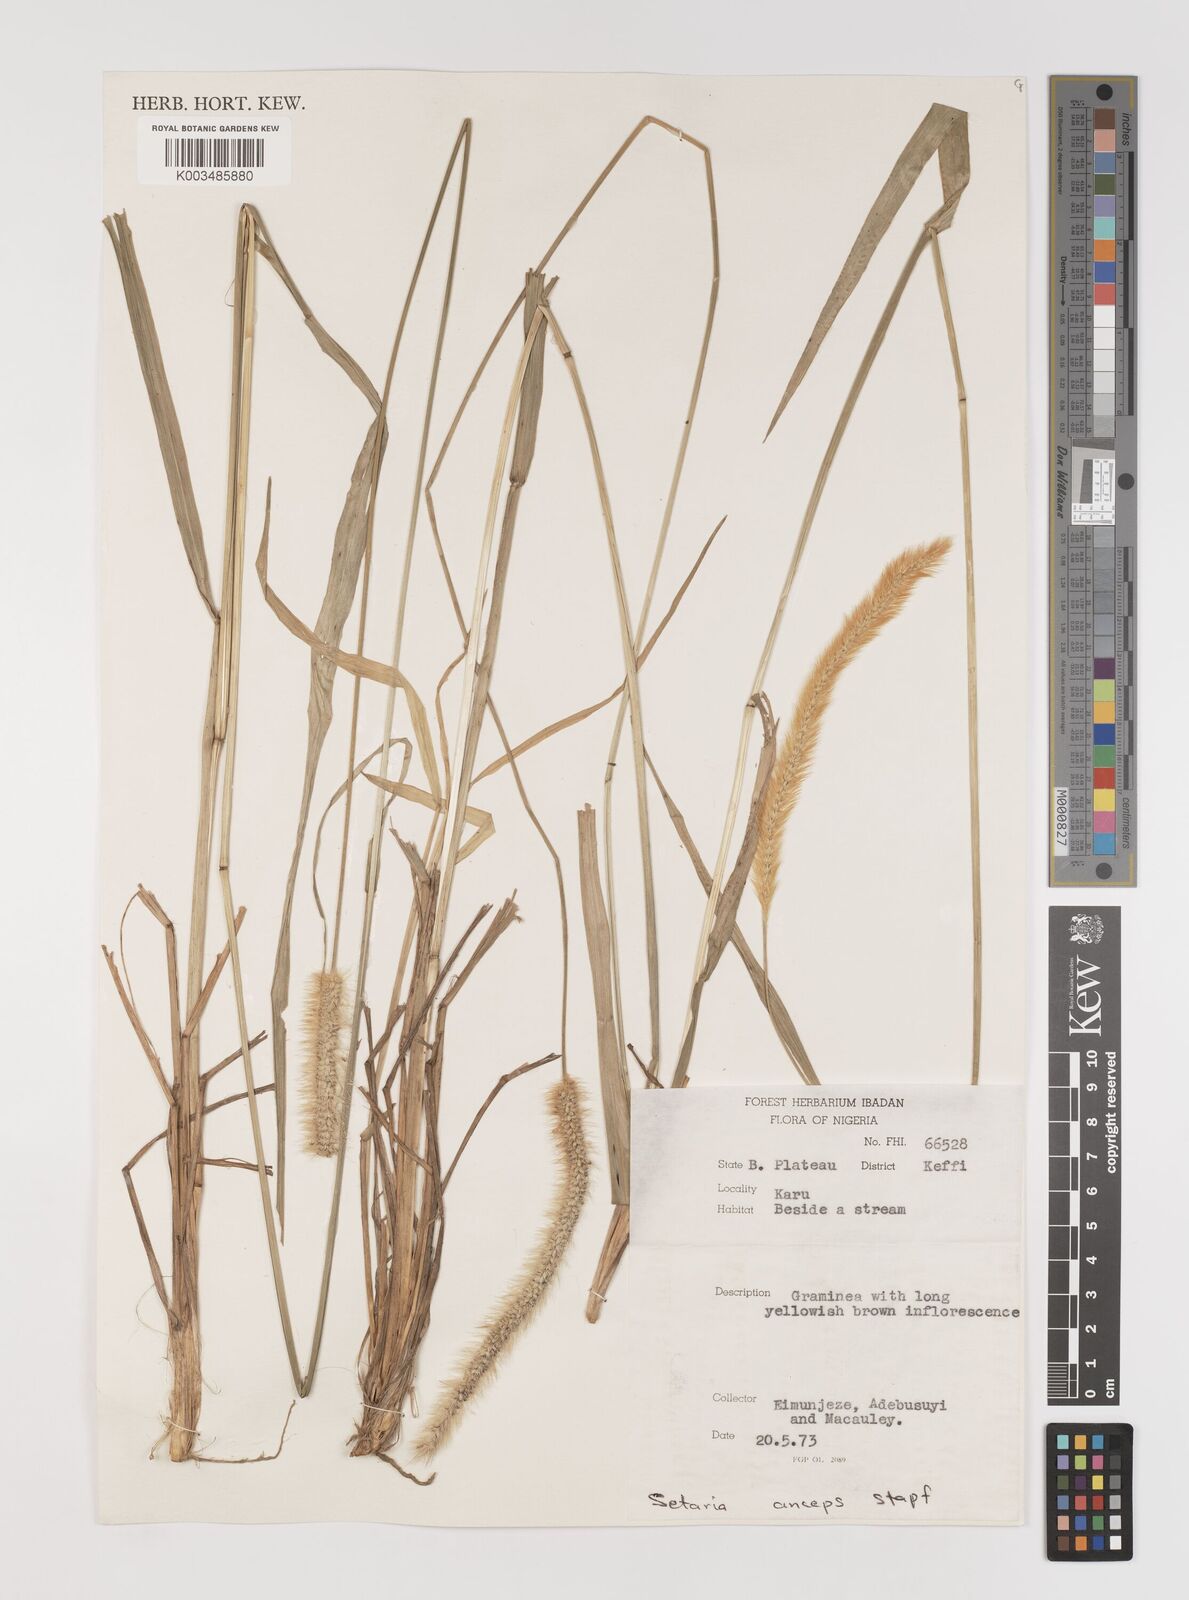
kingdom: Plantae
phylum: Tracheophyta
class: Liliopsida
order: Poales
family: Poaceae
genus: Setaria
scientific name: Setaria sphacelata
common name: African bristlegrass
